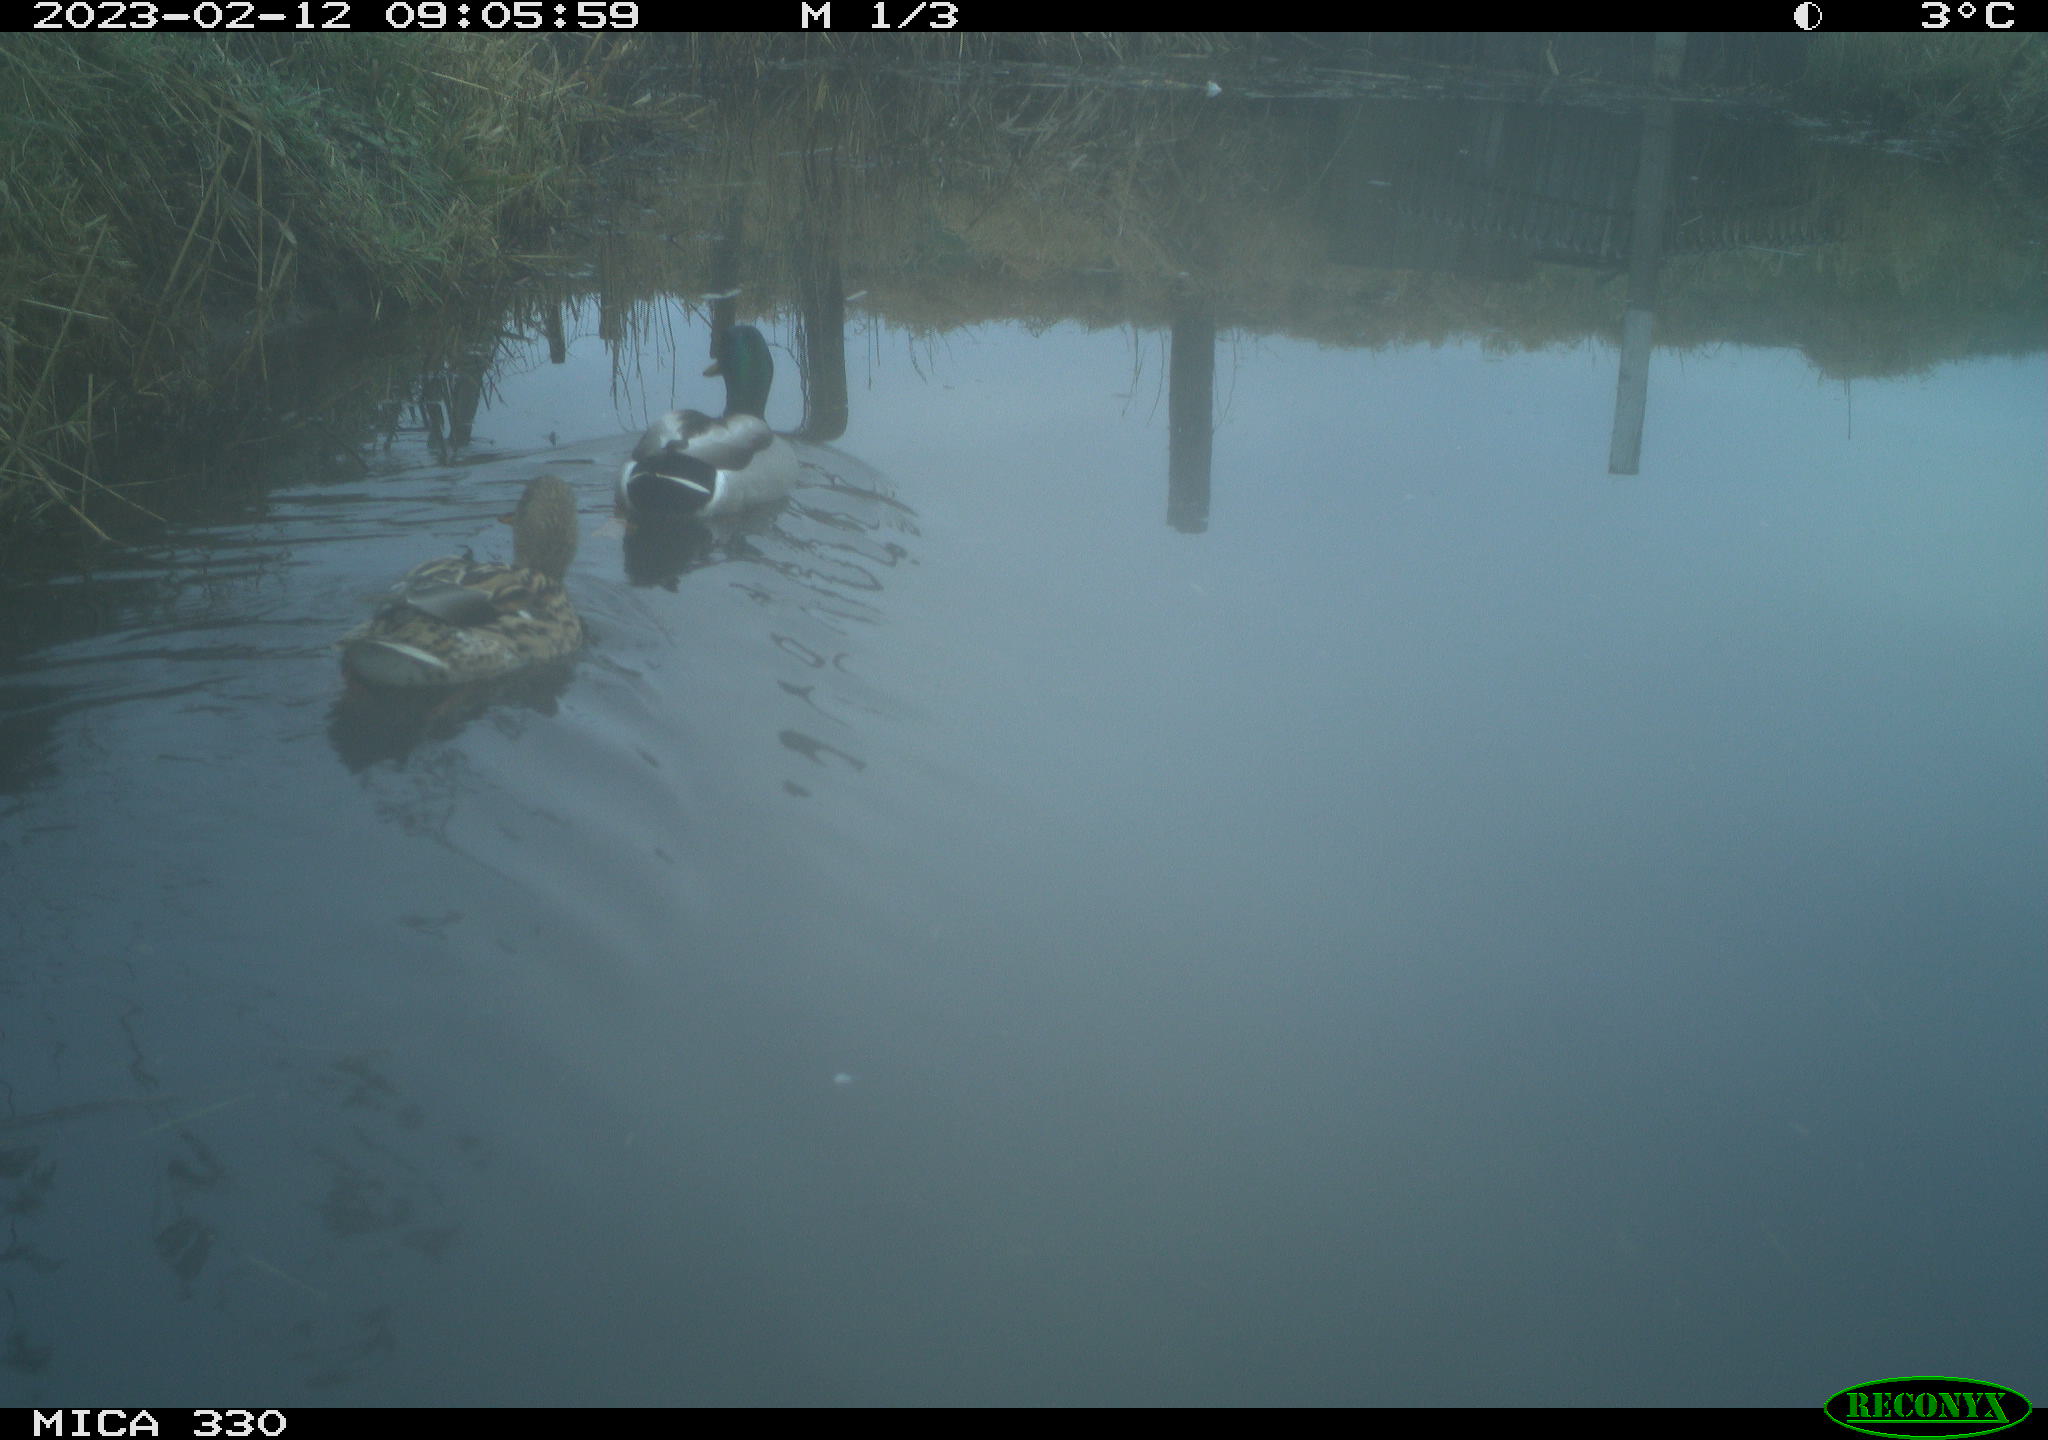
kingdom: Animalia
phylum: Chordata
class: Aves
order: Anseriformes
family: Anatidae
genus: Anas
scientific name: Anas
